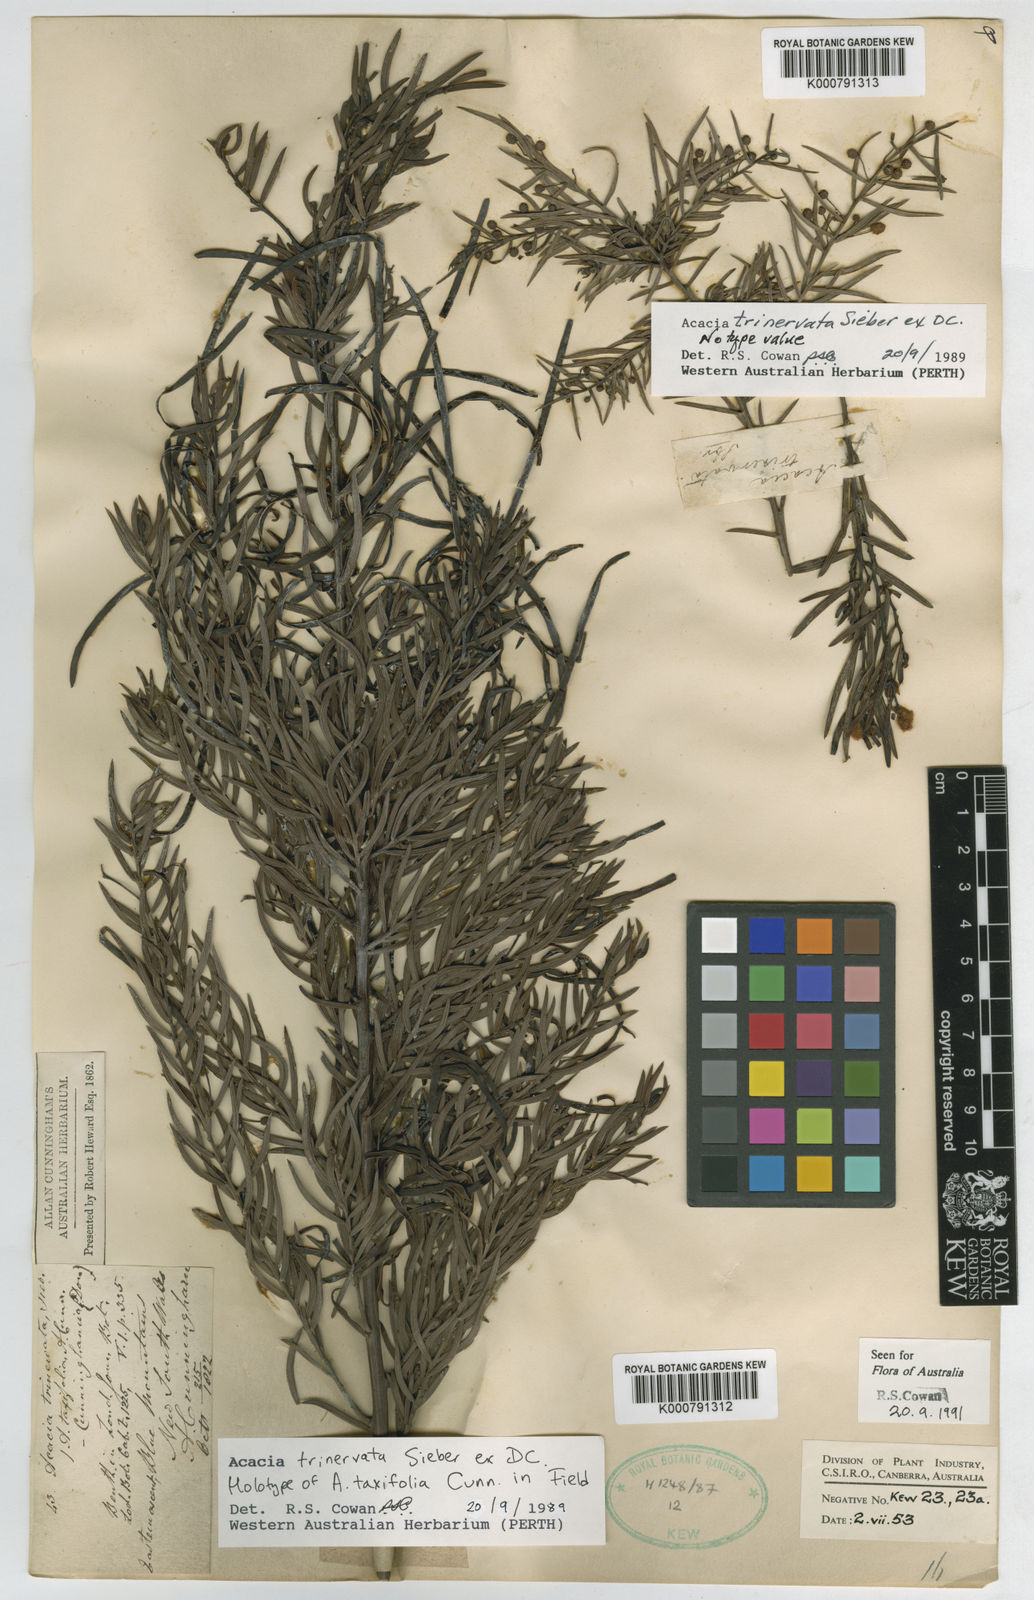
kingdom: Plantae
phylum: Tracheophyta
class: Magnoliopsida
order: Fabales
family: Fabaceae
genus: Acacia
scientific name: Acacia trinervata
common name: Three-nerve wattle
